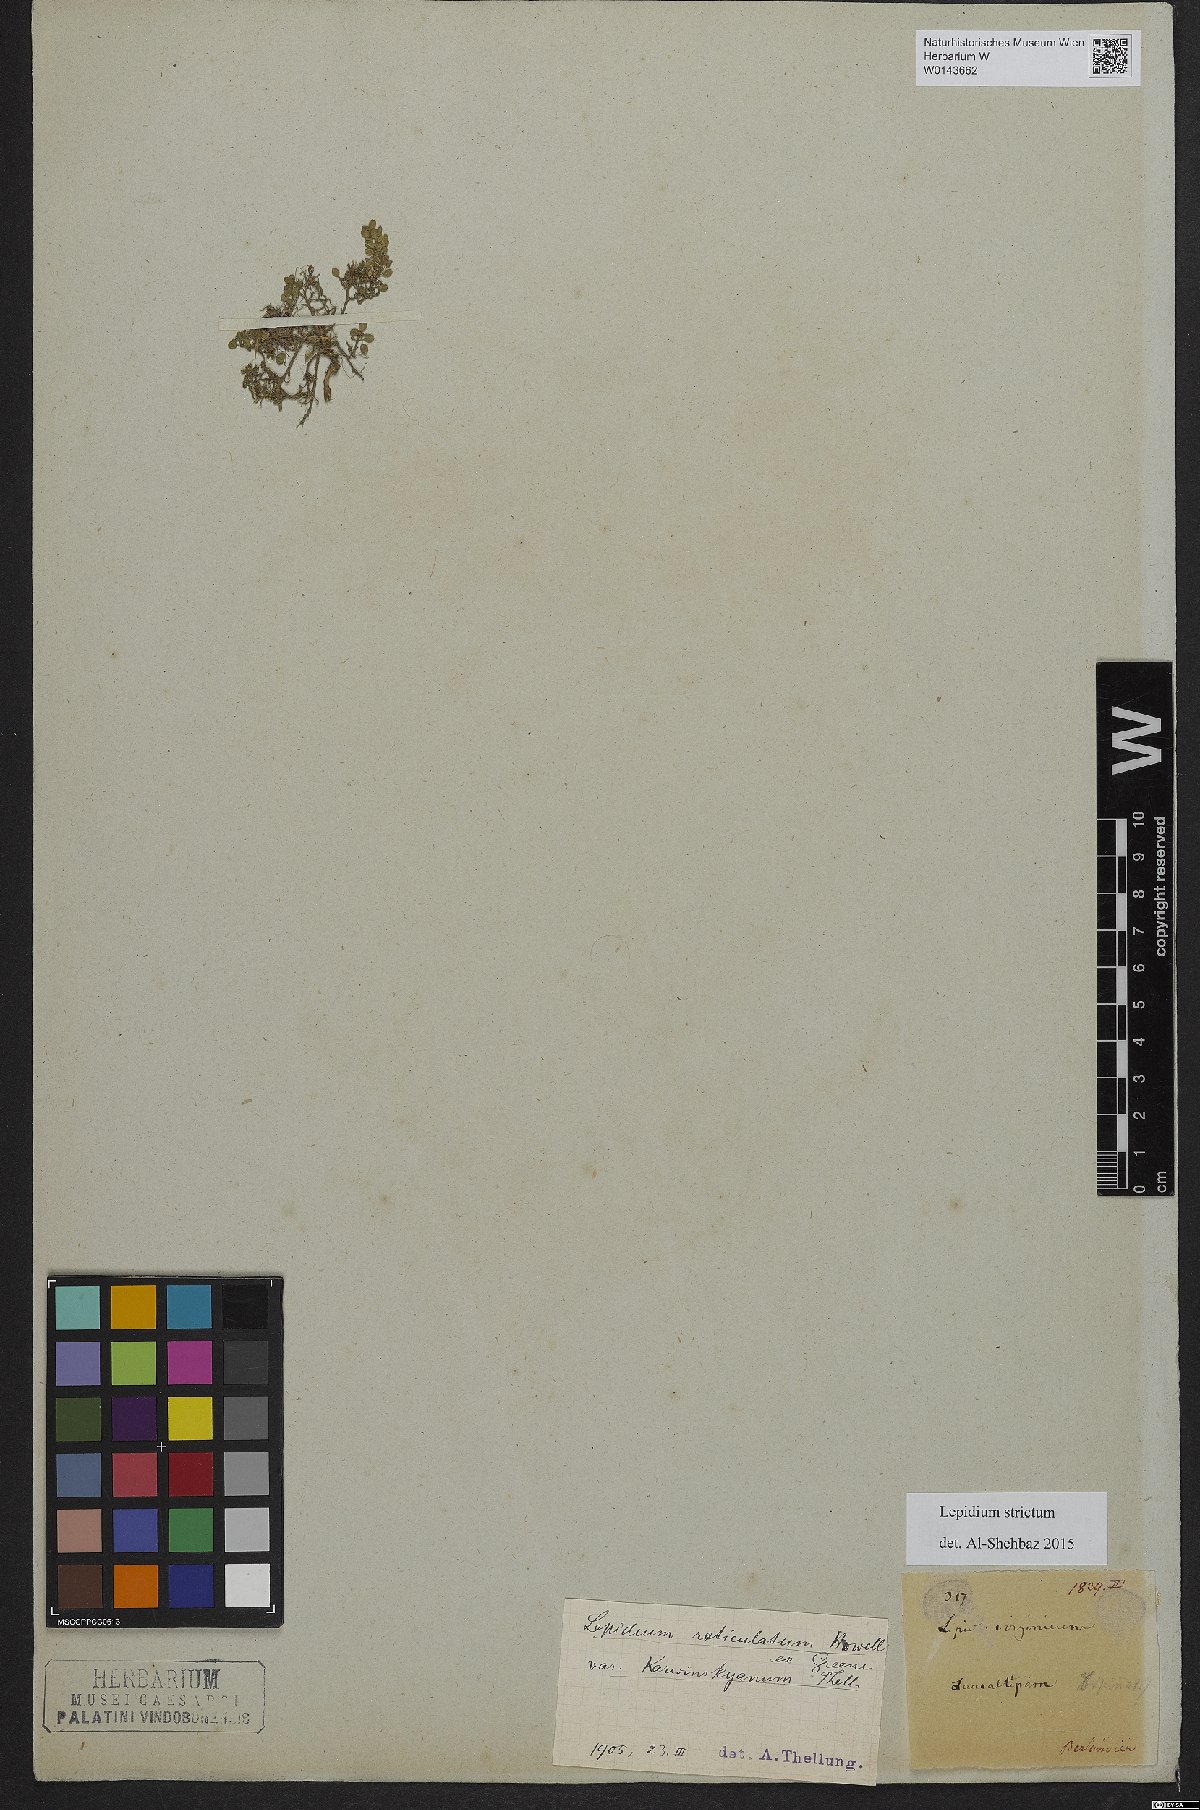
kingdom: Plantae
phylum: Tracheophyta
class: Magnoliopsida
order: Brassicales
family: Brassicaceae
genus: Lepidium
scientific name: Lepidium oblongum
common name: Veiny pepperweed
